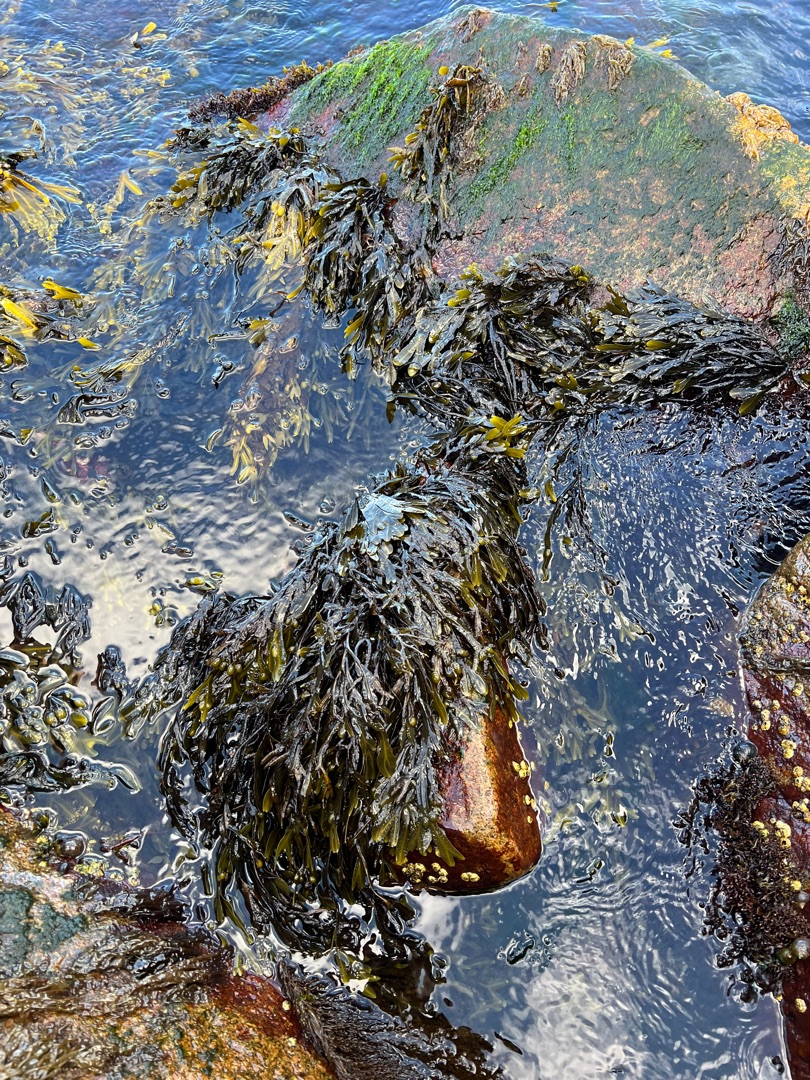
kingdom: Chromista
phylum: Ochrophyta
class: Phaeophyceae
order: Fucales
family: Fucaceae
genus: Fucus
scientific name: Fucus vesiculosus
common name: Blæretang
